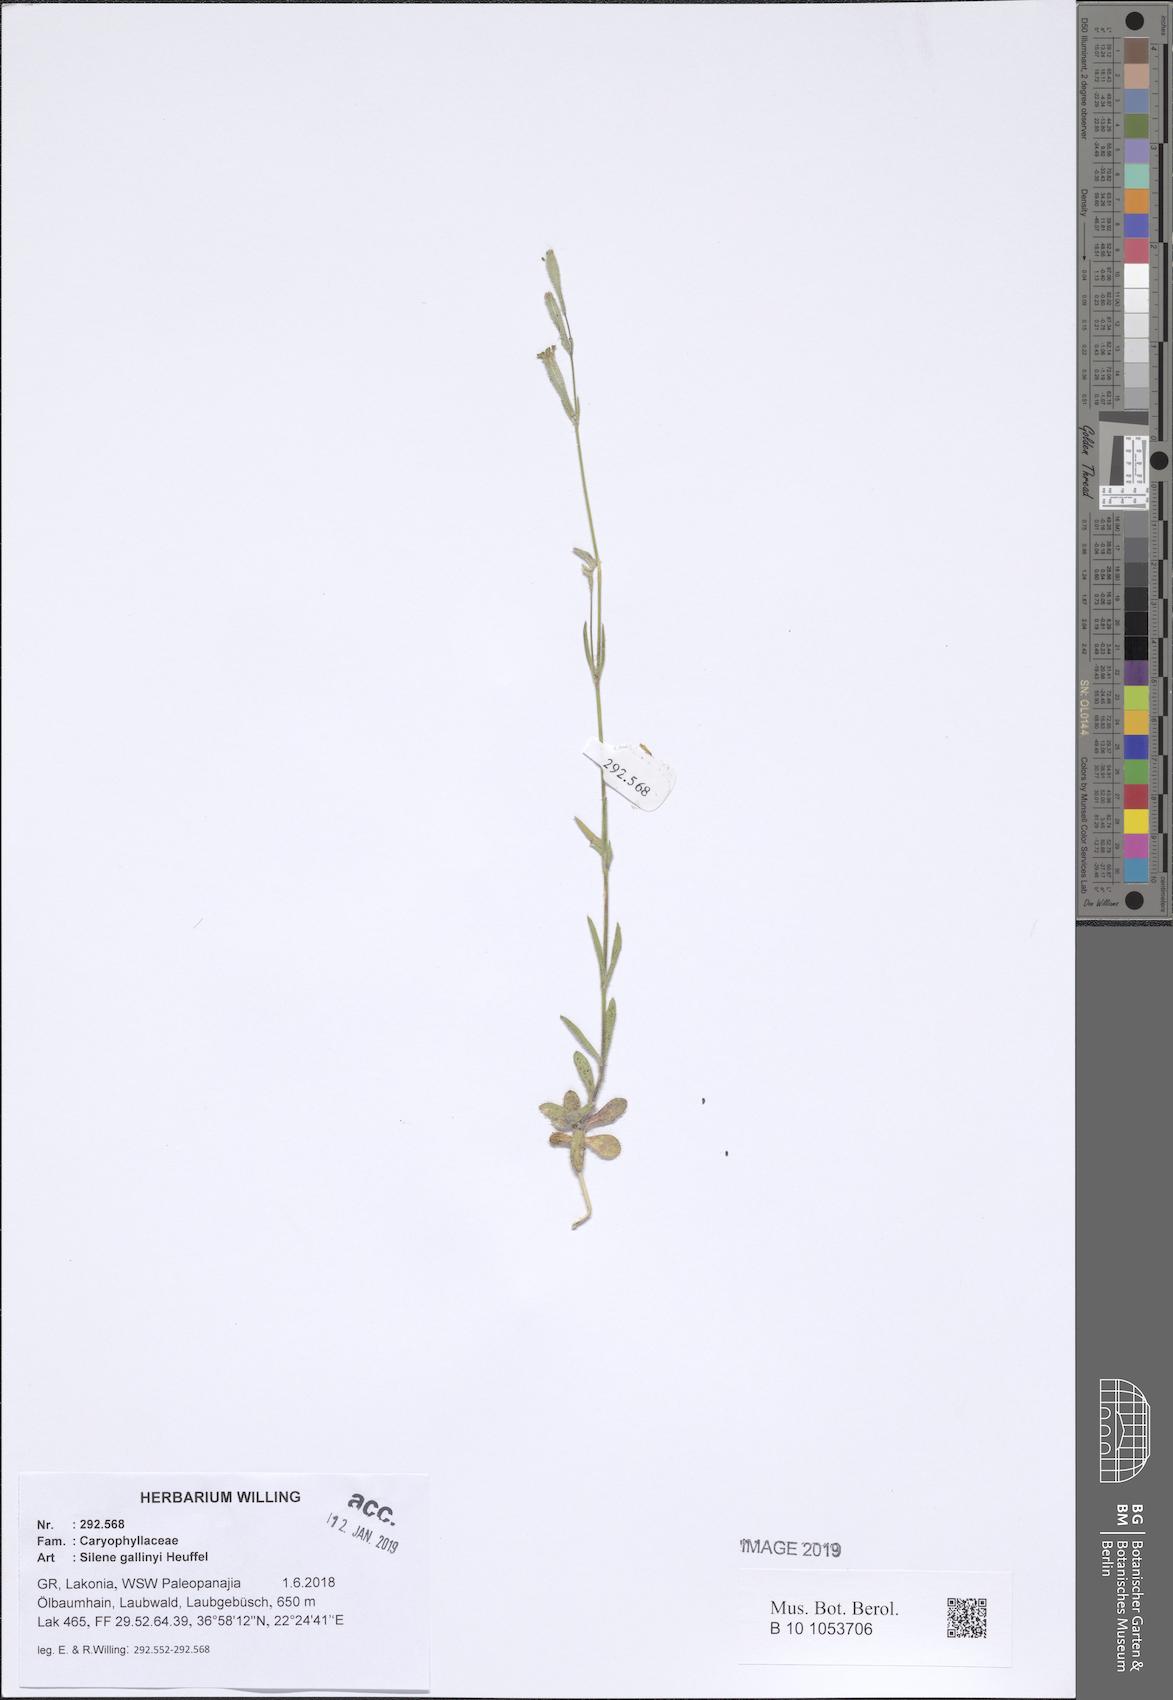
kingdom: Plantae
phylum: Tracheophyta
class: Magnoliopsida
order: Caryophyllales
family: Caryophyllaceae
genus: Silene
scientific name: Silene gallinyi
